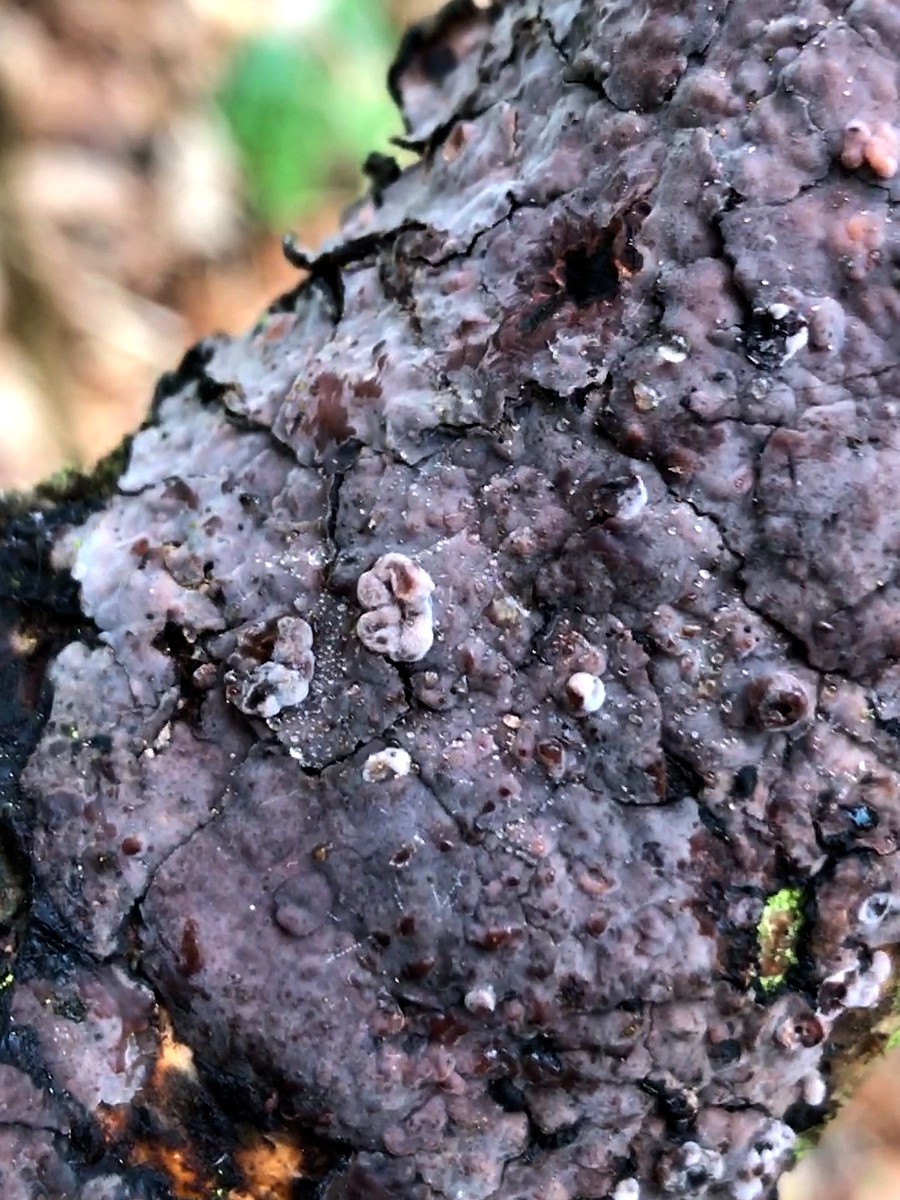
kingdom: Fungi
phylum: Basidiomycota
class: Agaricomycetes
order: Russulales
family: Peniophoraceae
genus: Peniophora
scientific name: Peniophora quercina
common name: ege-voksskind
